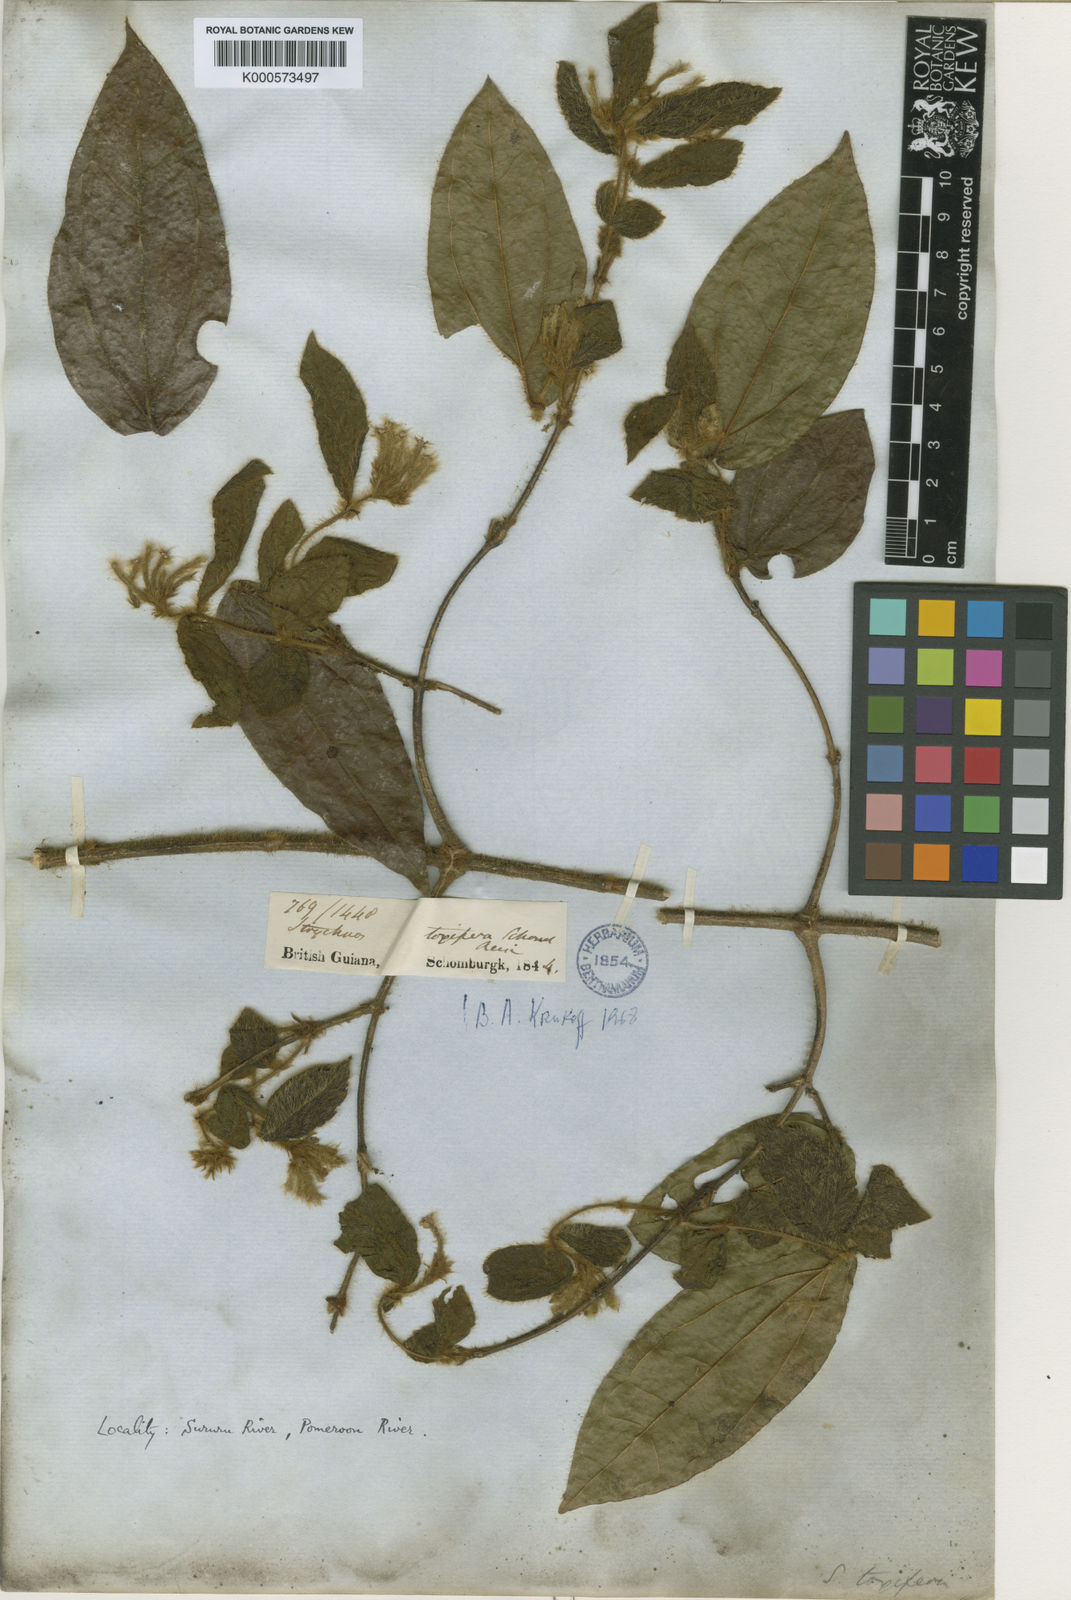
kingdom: Plantae
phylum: Tracheophyta
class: Magnoliopsida
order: Gentianales
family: Loganiaceae
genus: Strychnos
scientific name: Strychnos
